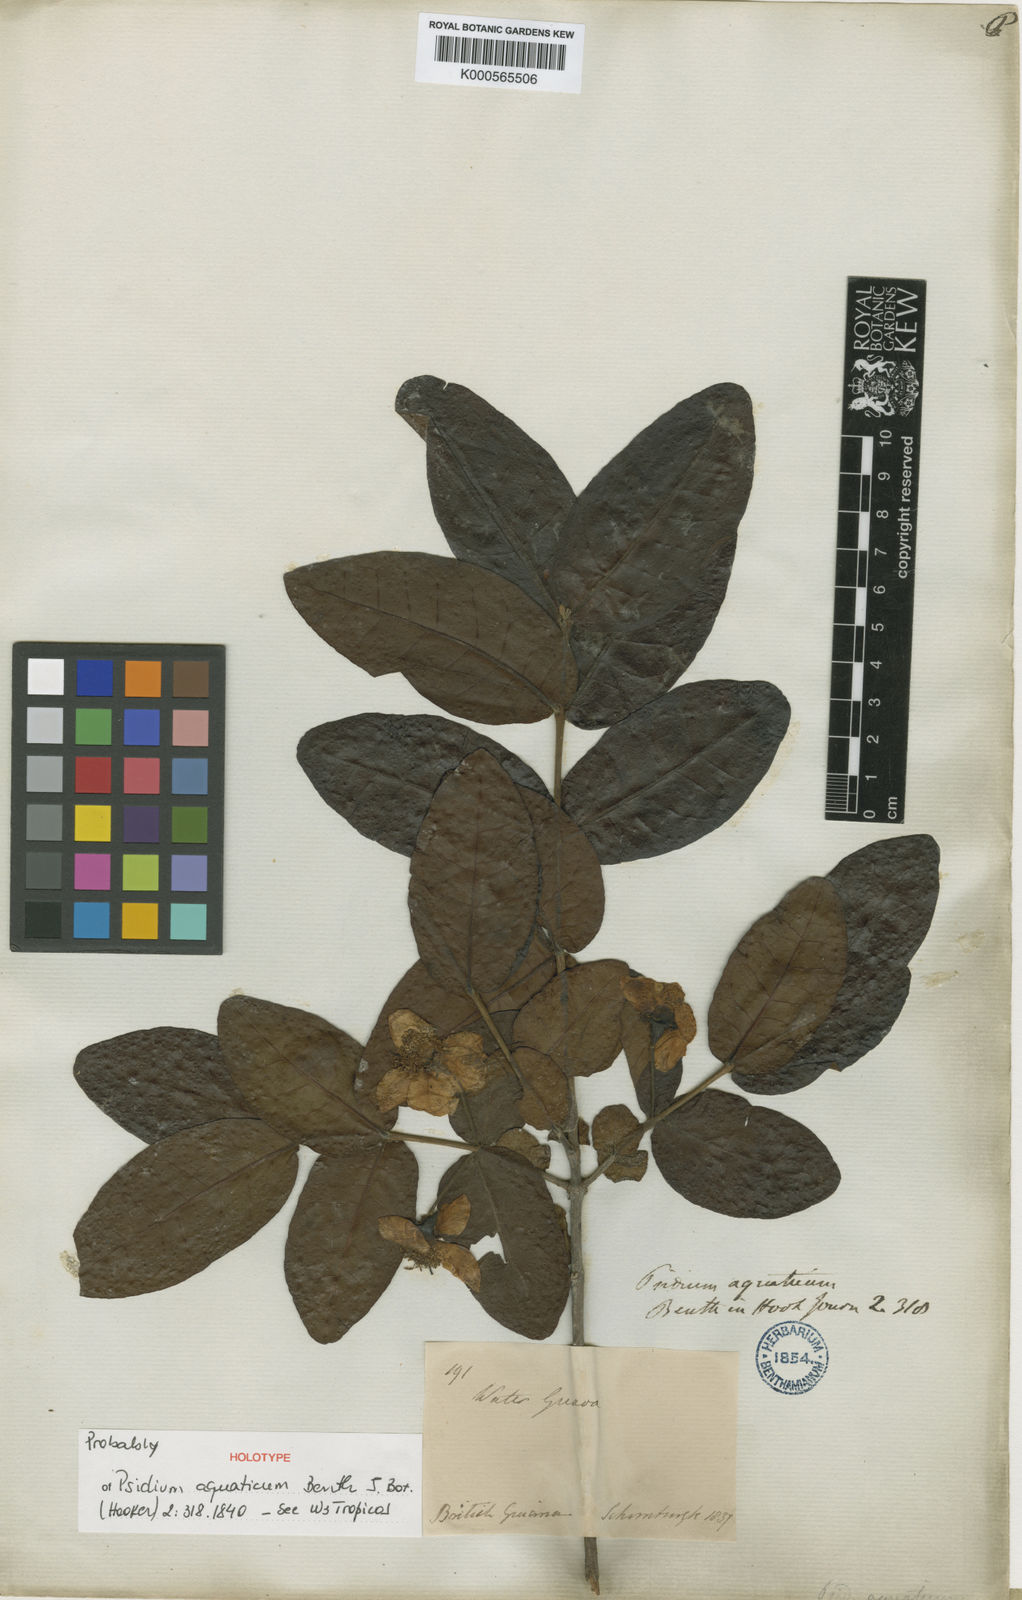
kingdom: Plantae
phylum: Tracheophyta
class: Magnoliopsida
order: Myrtales
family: Myrtaceae
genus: Psidium
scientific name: Psidium striatulum
